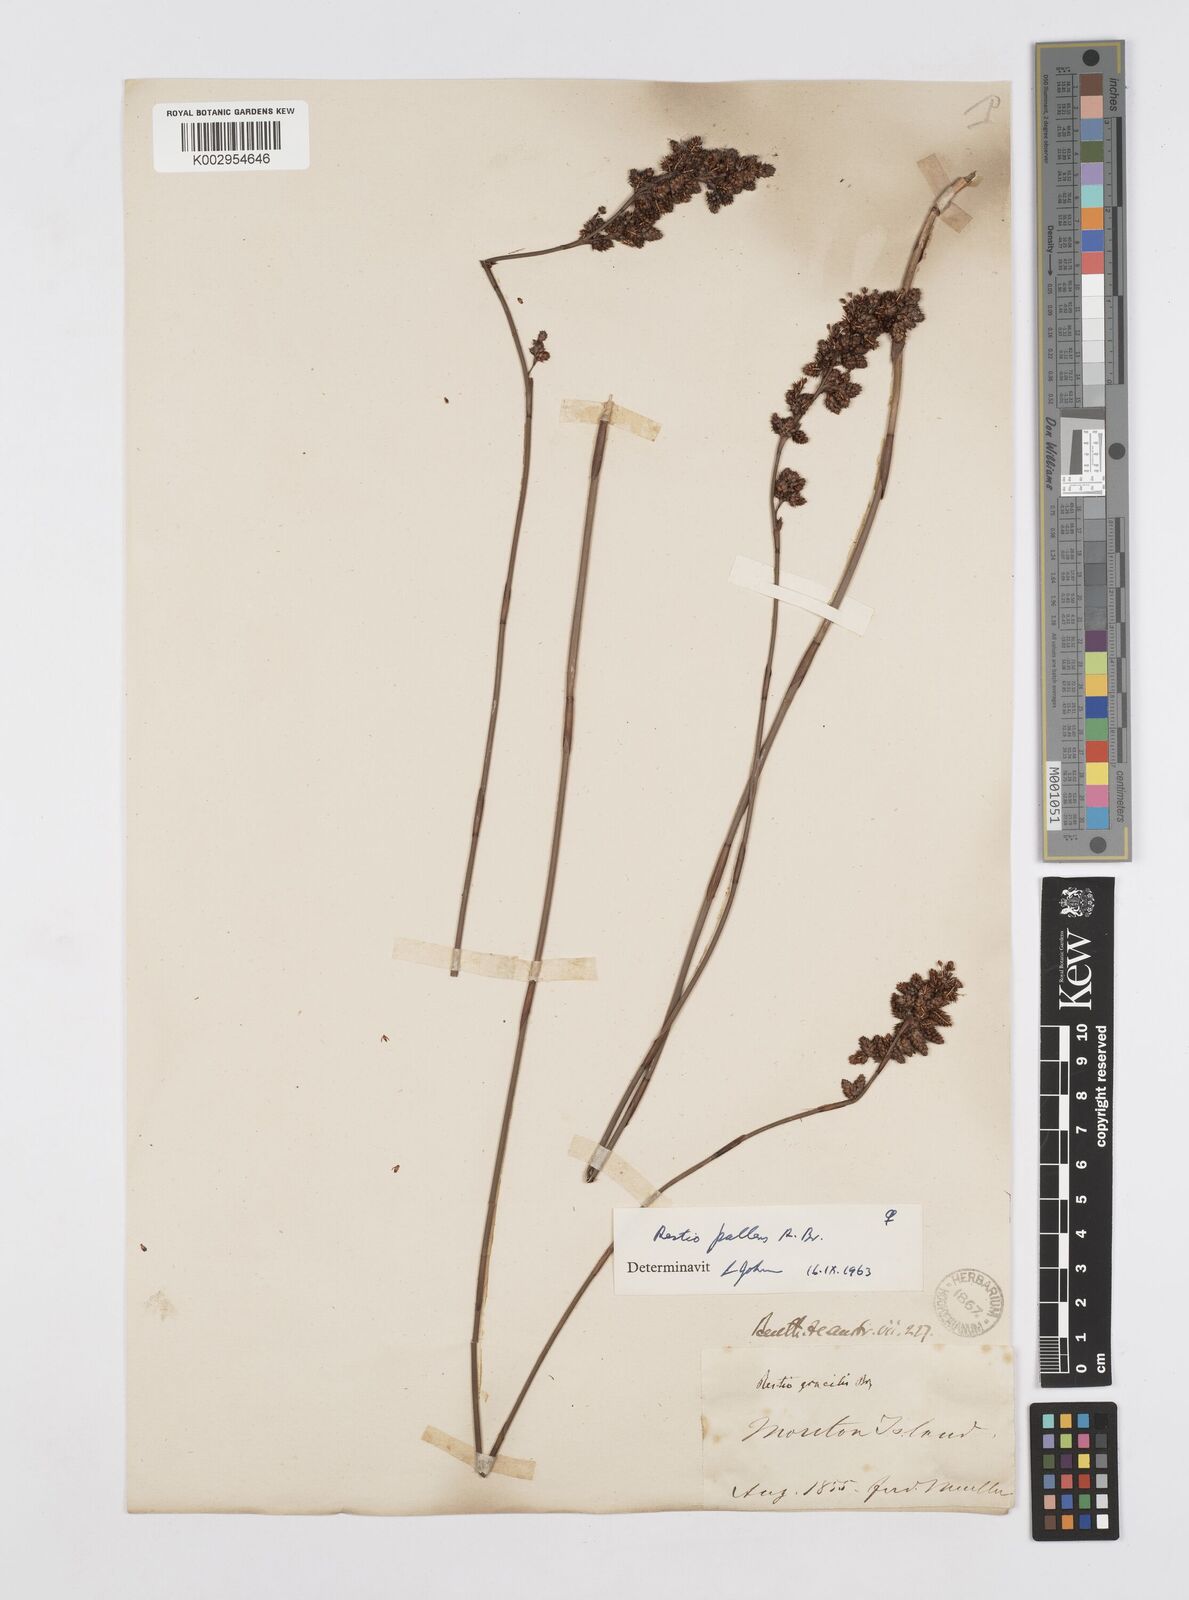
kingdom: Plantae
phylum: Tracheophyta
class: Liliopsida
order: Poales
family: Restionaceae
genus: Baloskion
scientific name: Baloskion pallens
